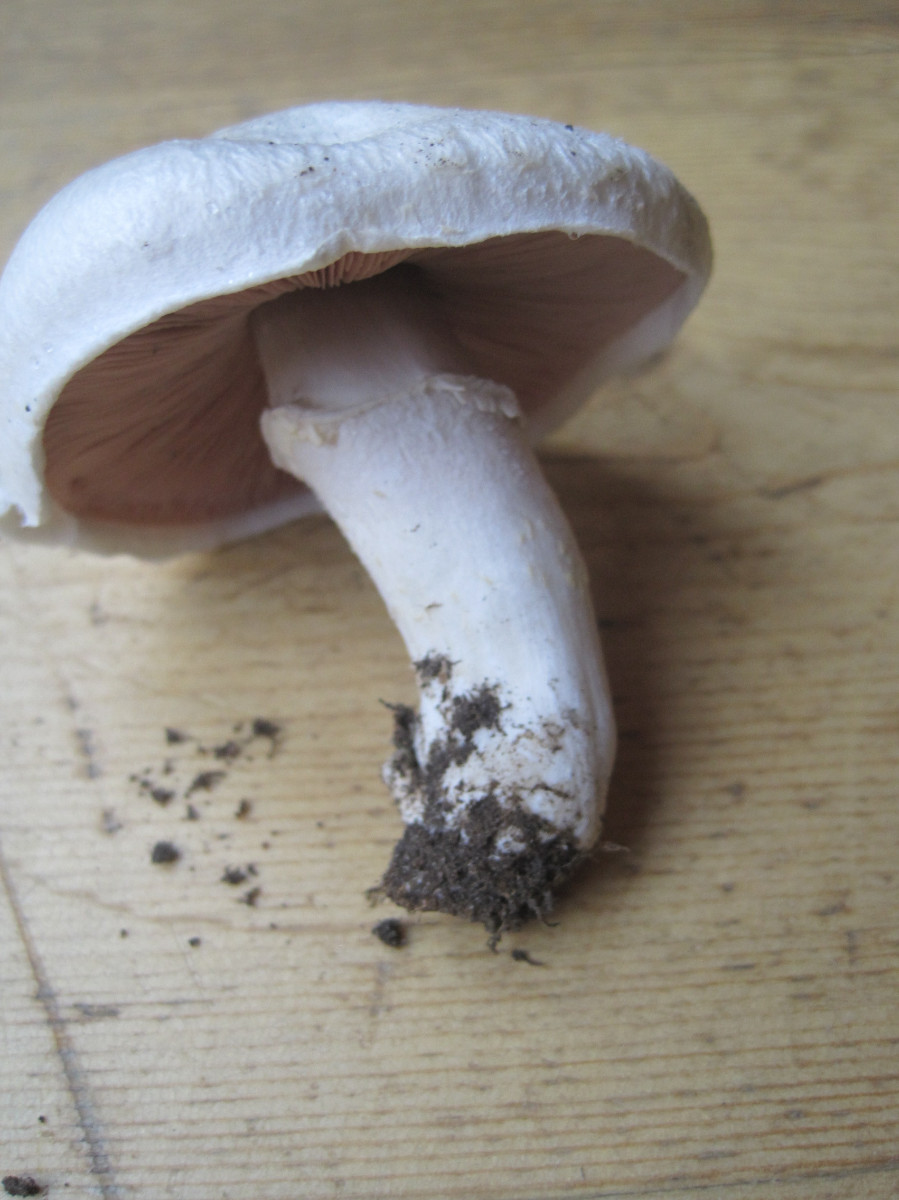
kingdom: Fungi
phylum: Basidiomycota
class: Agaricomycetes
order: Agaricales
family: Agaricaceae
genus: Agaricus
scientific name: Agaricus campestris
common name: mark-champignon
